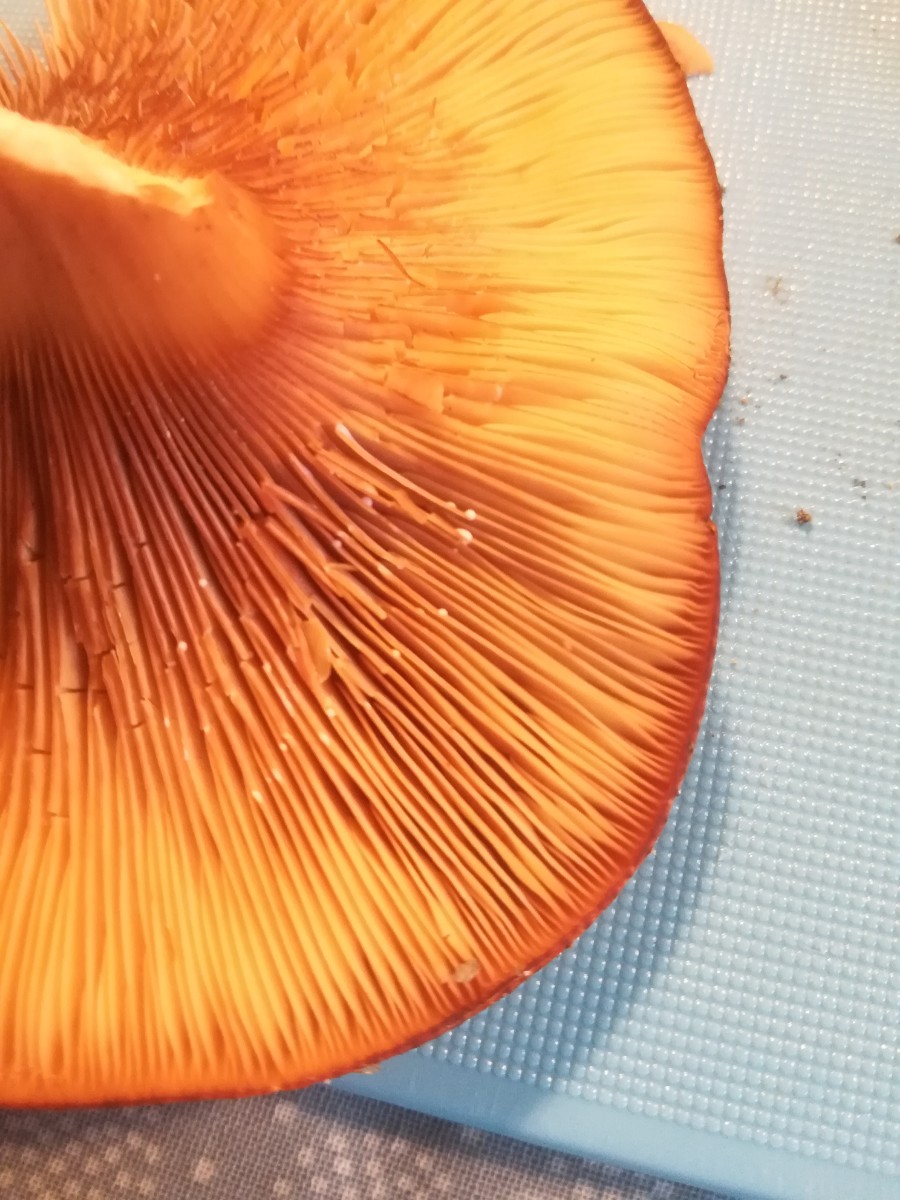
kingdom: Fungi
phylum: Basidiomycota
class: Agaricomycetes
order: Russulales
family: Russulaceae
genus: Lactarius
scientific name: Lactarius rufus
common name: rødbrun mælkehat
